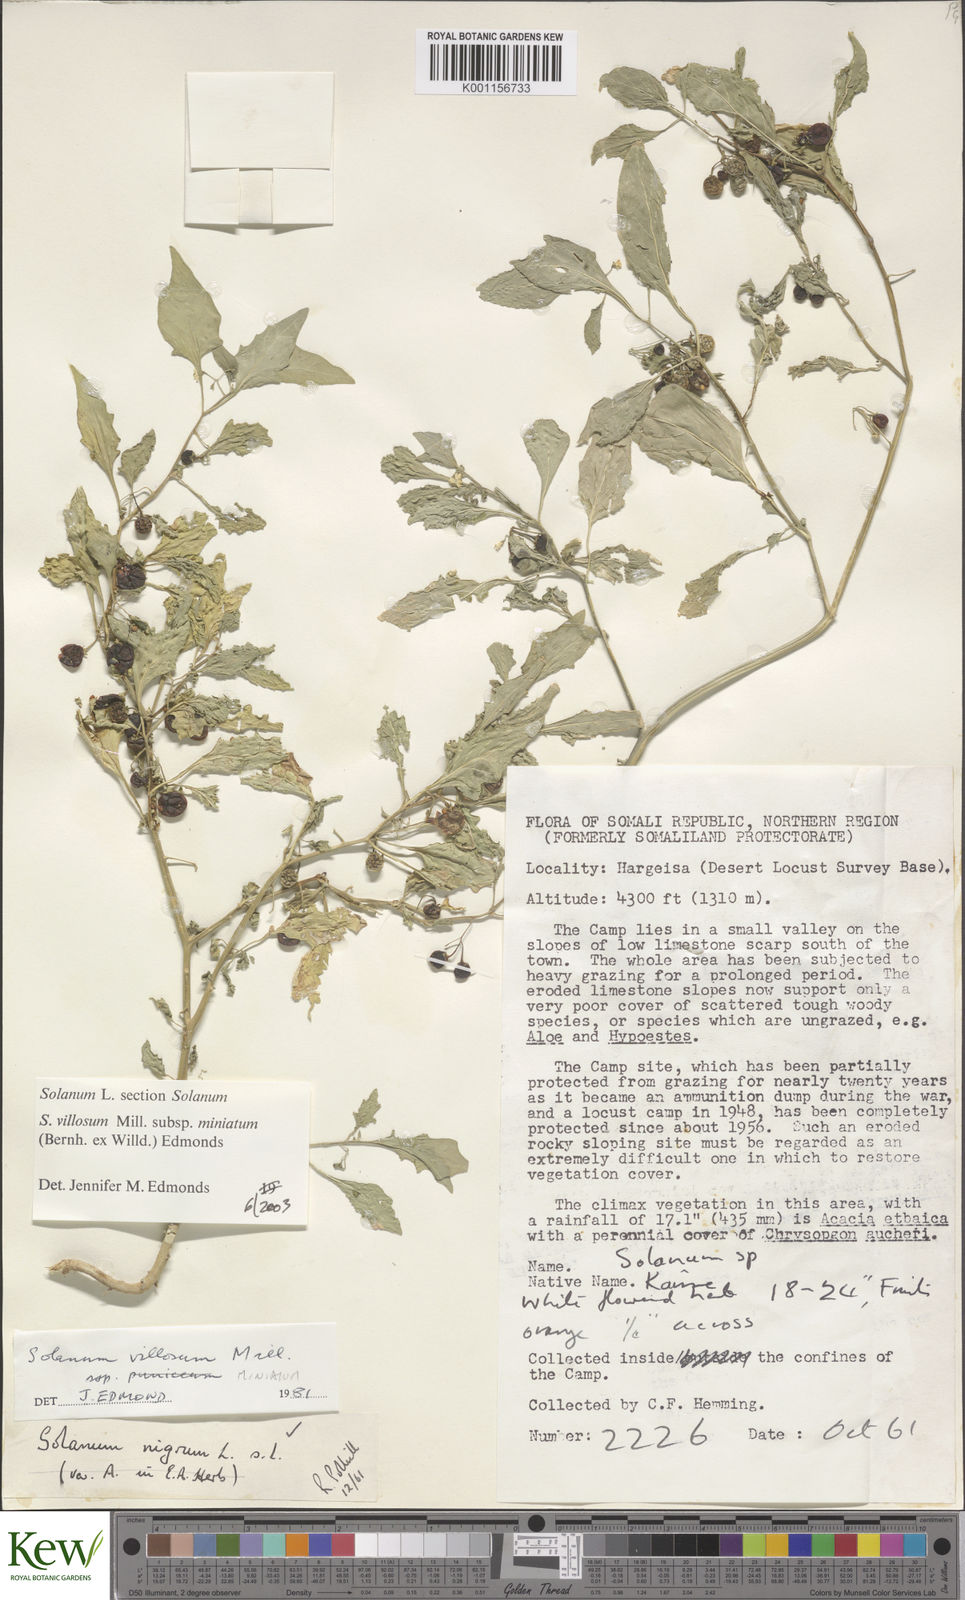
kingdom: Plantae
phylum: Tracheophyta
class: Magnoliopsida
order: Solanales
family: Solanaceae
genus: Solanum
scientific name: Solanum villosum
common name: Red nightshade
